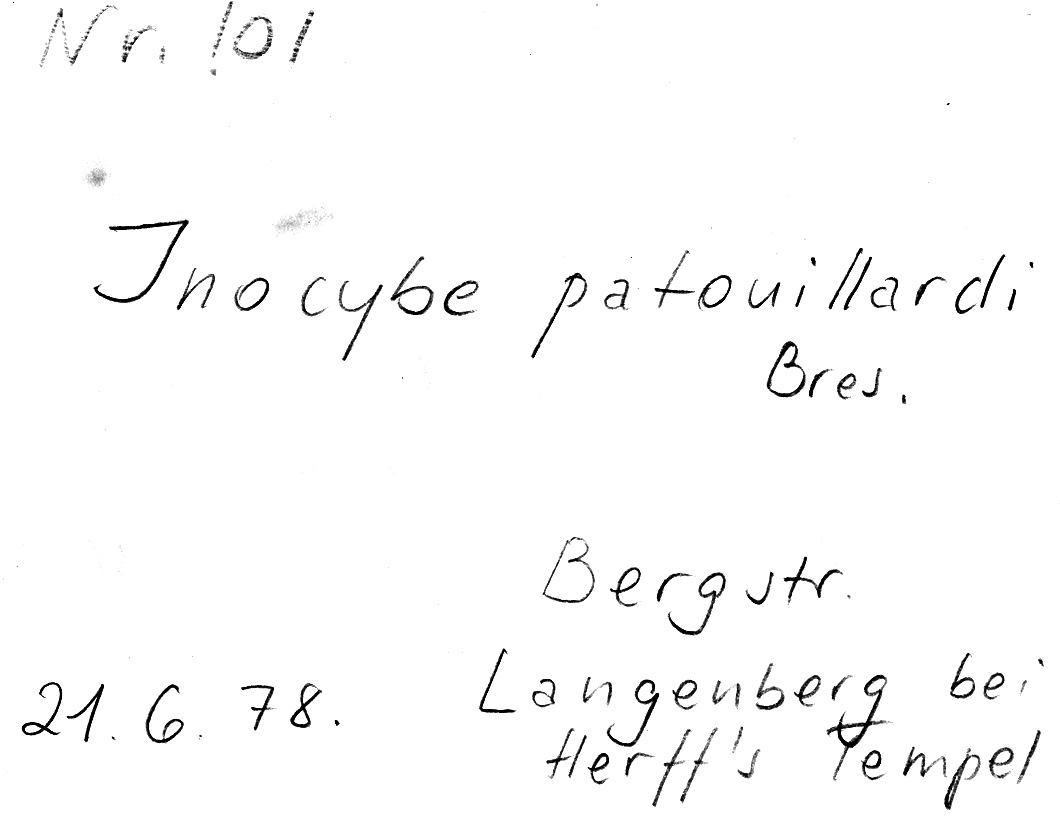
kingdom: Fungi
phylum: Basidiomycota
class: Agaricomycetes
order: Agaricales
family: Inocybaceae
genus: Inosperma
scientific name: Inosperma erubescens
